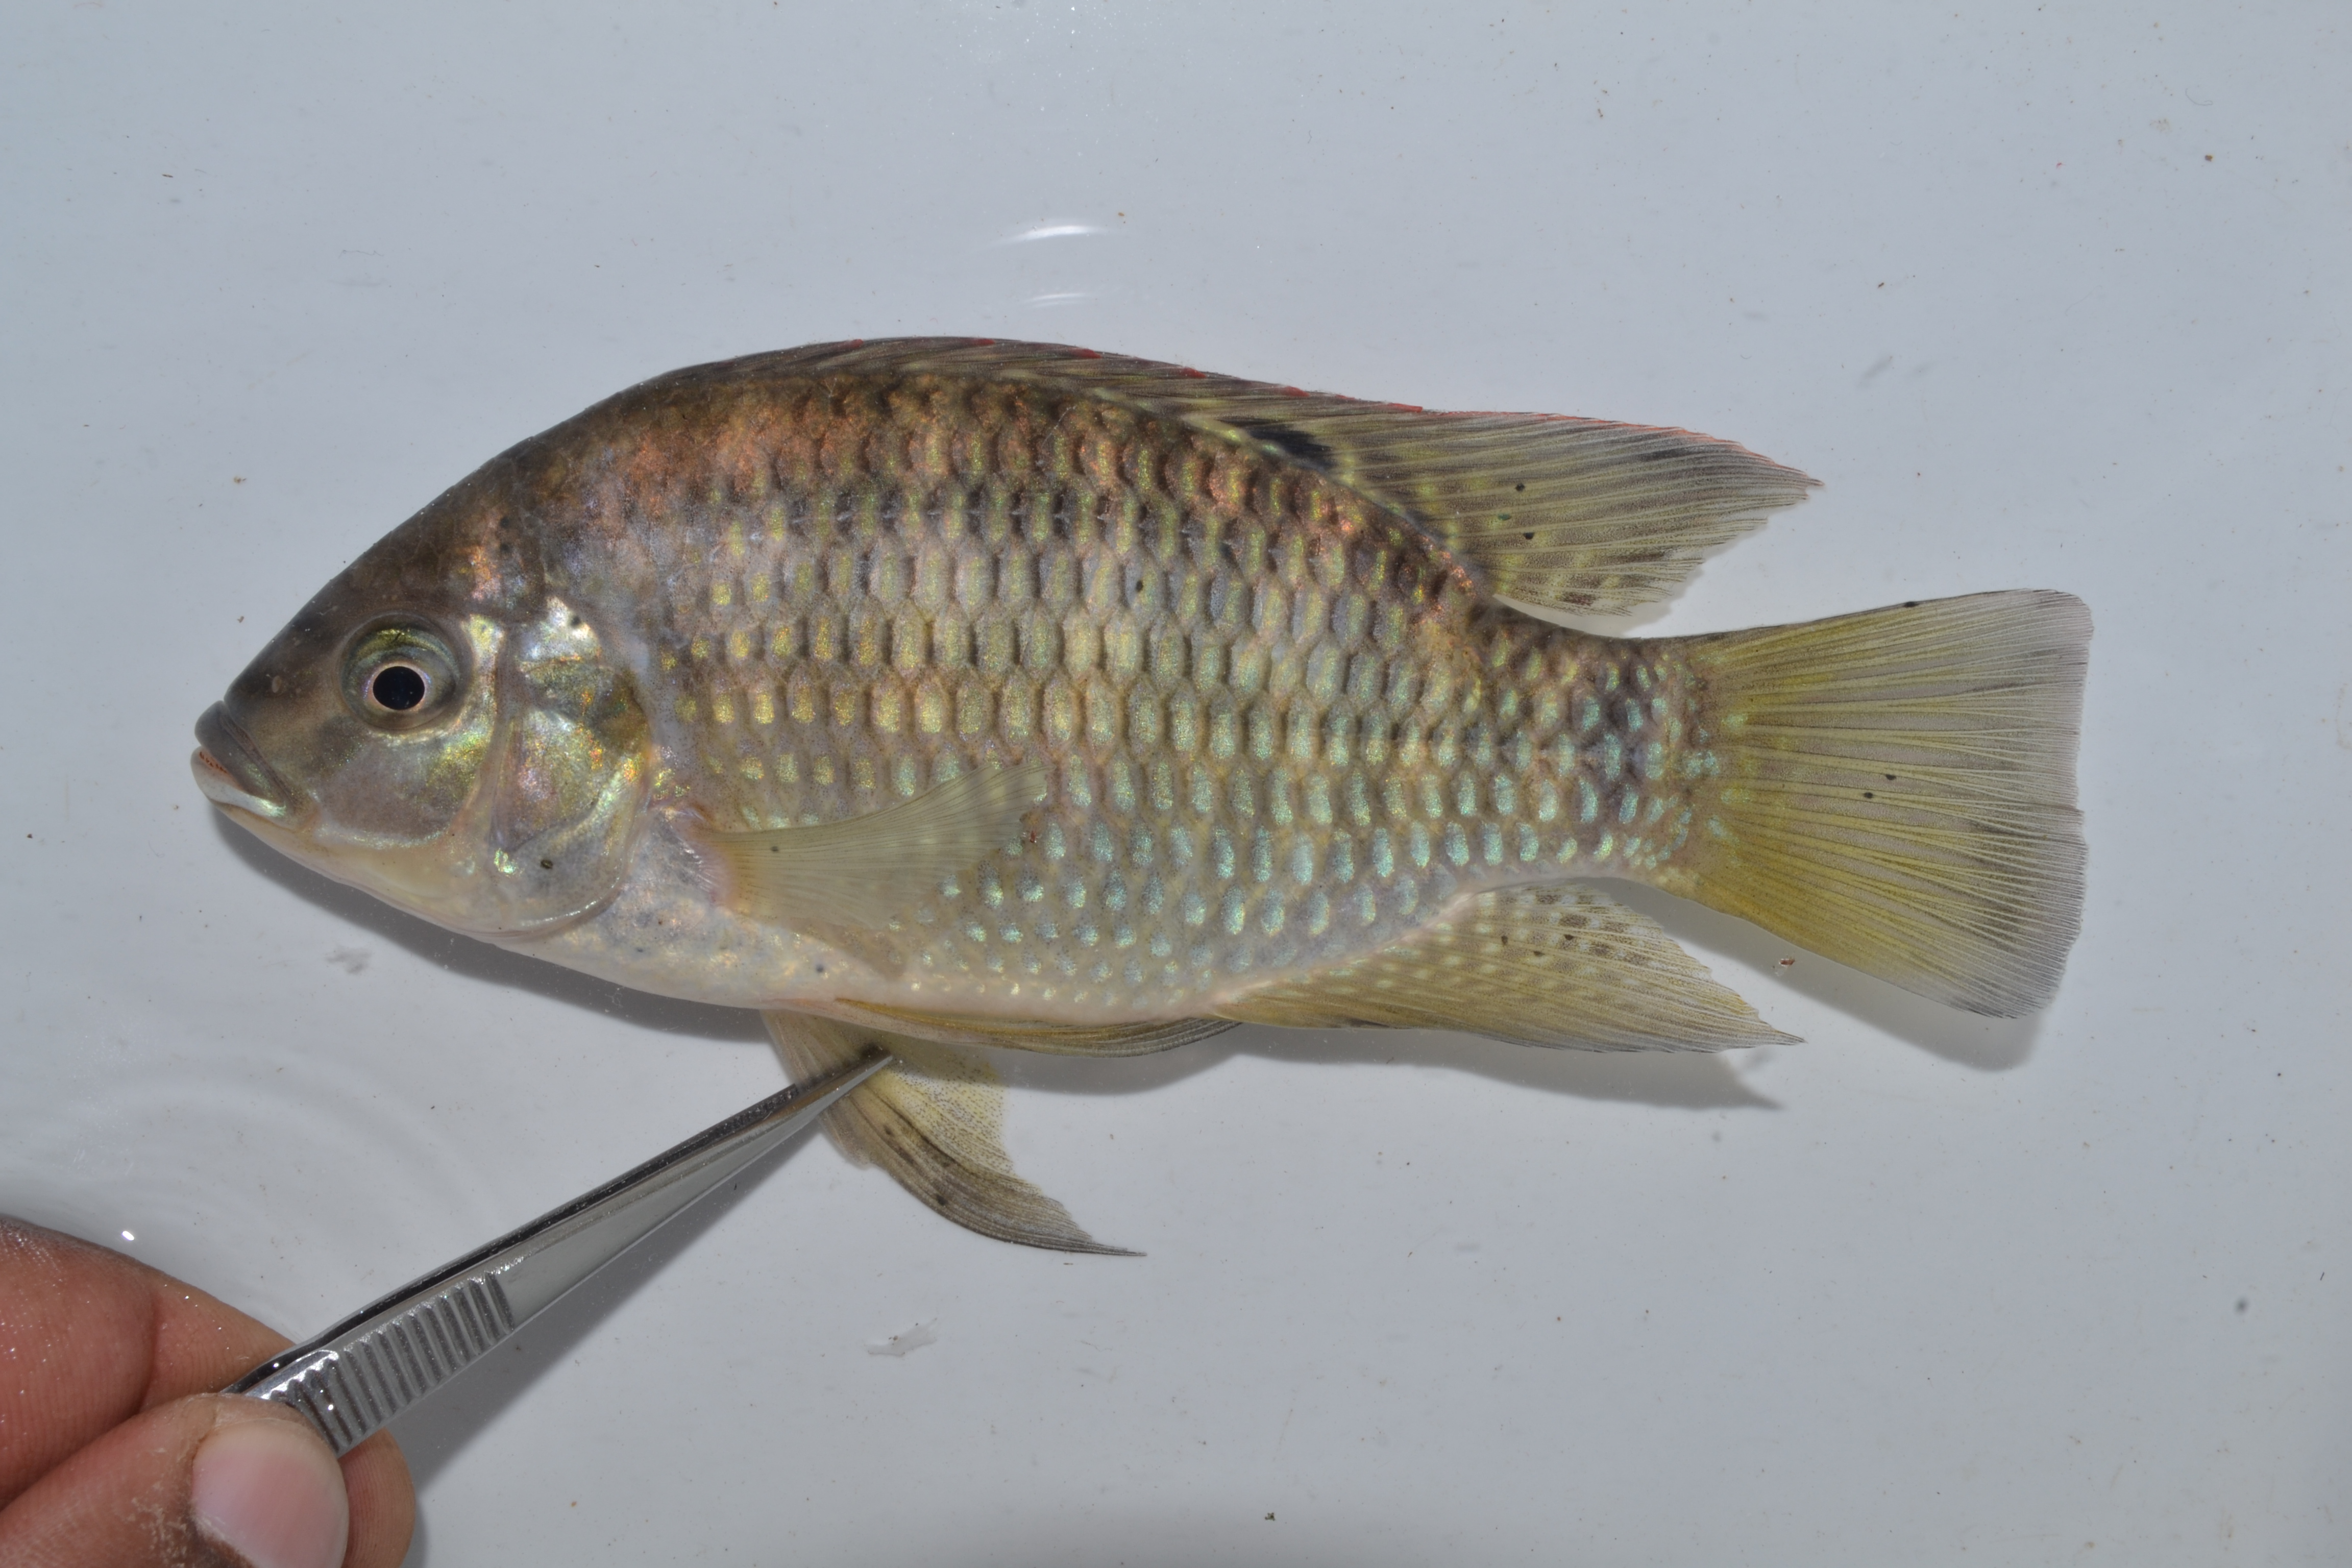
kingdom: Animalia
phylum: Chordata
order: Perciformes
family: Cichlidae
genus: Coptodon
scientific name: Coptodon rendalli
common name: Redbreast tilapia
